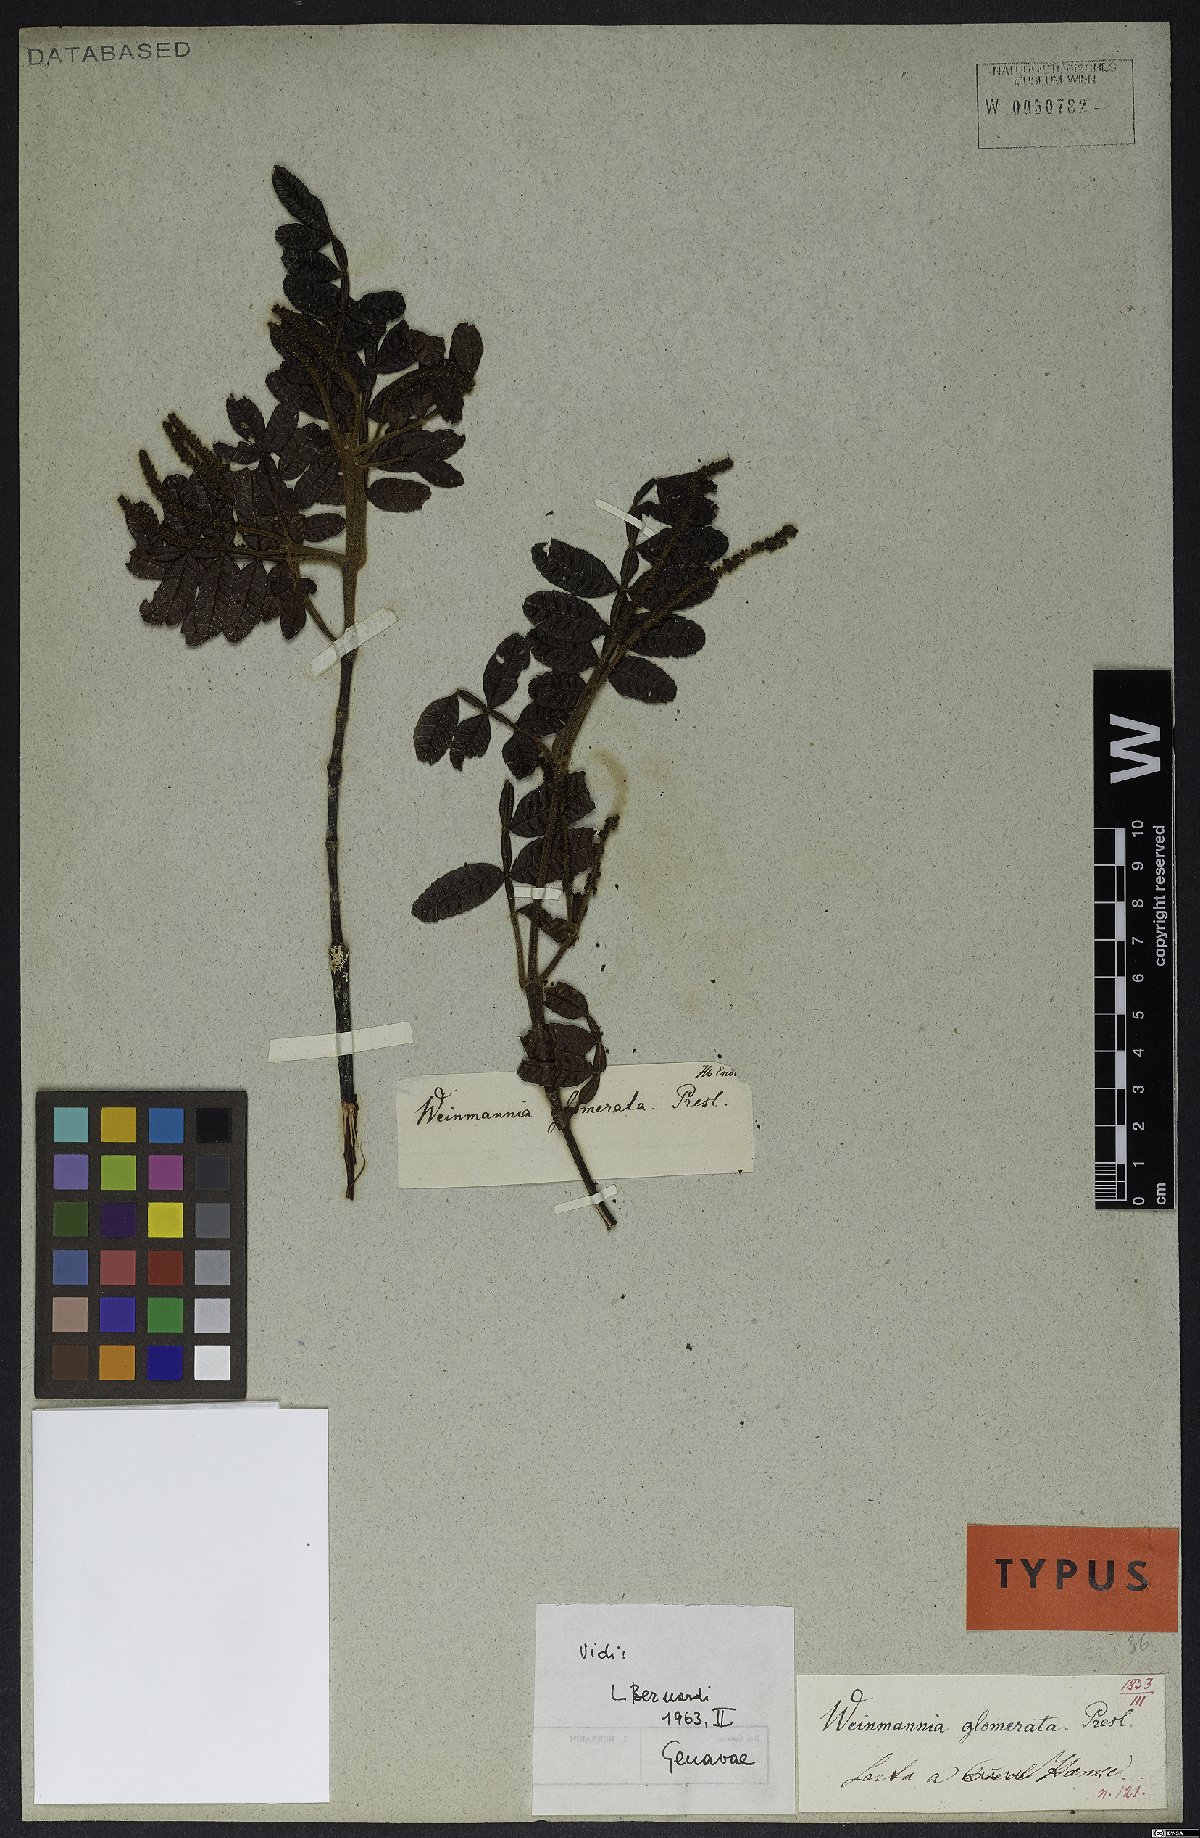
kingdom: Plantae
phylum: Tracheophyta
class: Magnoliopsida
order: Oxalidales
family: Cunoniaceae
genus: Weinmannia
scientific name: Weinmannia glomerata
